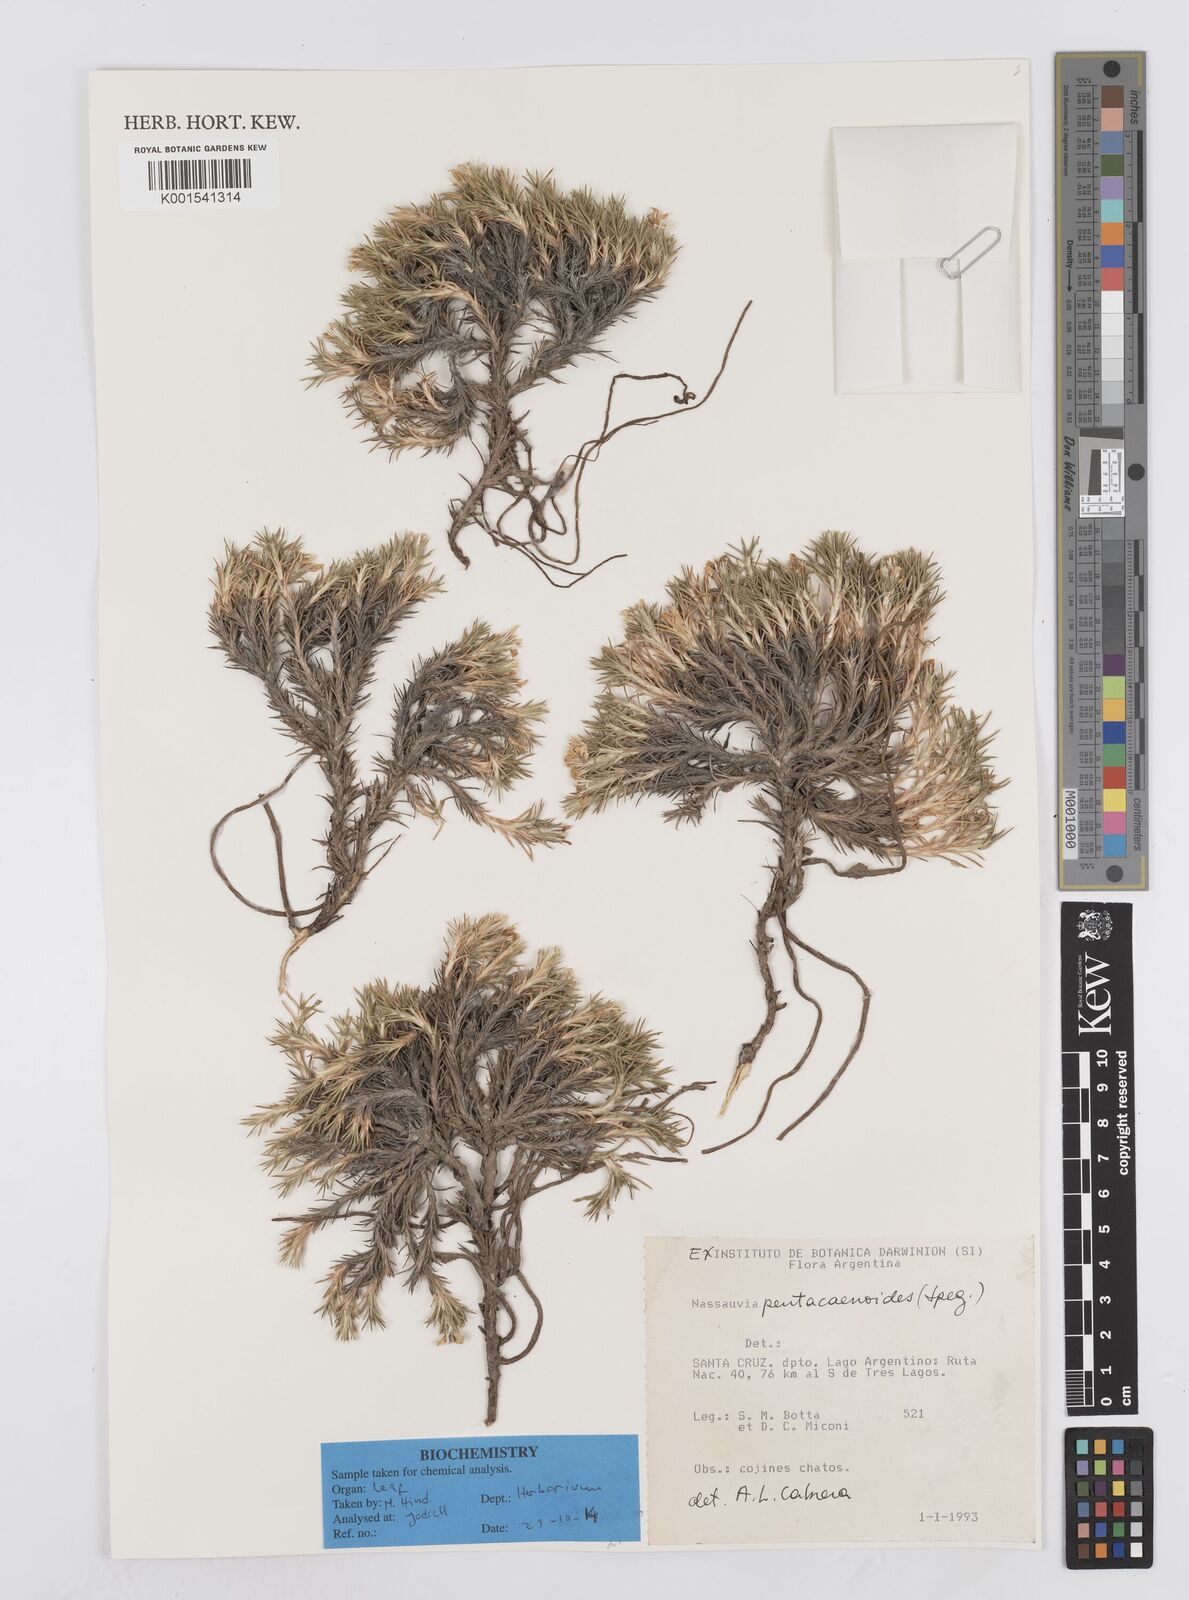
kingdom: Plantae
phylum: Tracheophyta
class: Magnoliopsida
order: Asterales
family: Asteraceae
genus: Nassauvia
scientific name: Nassauvia pentacaenoides
